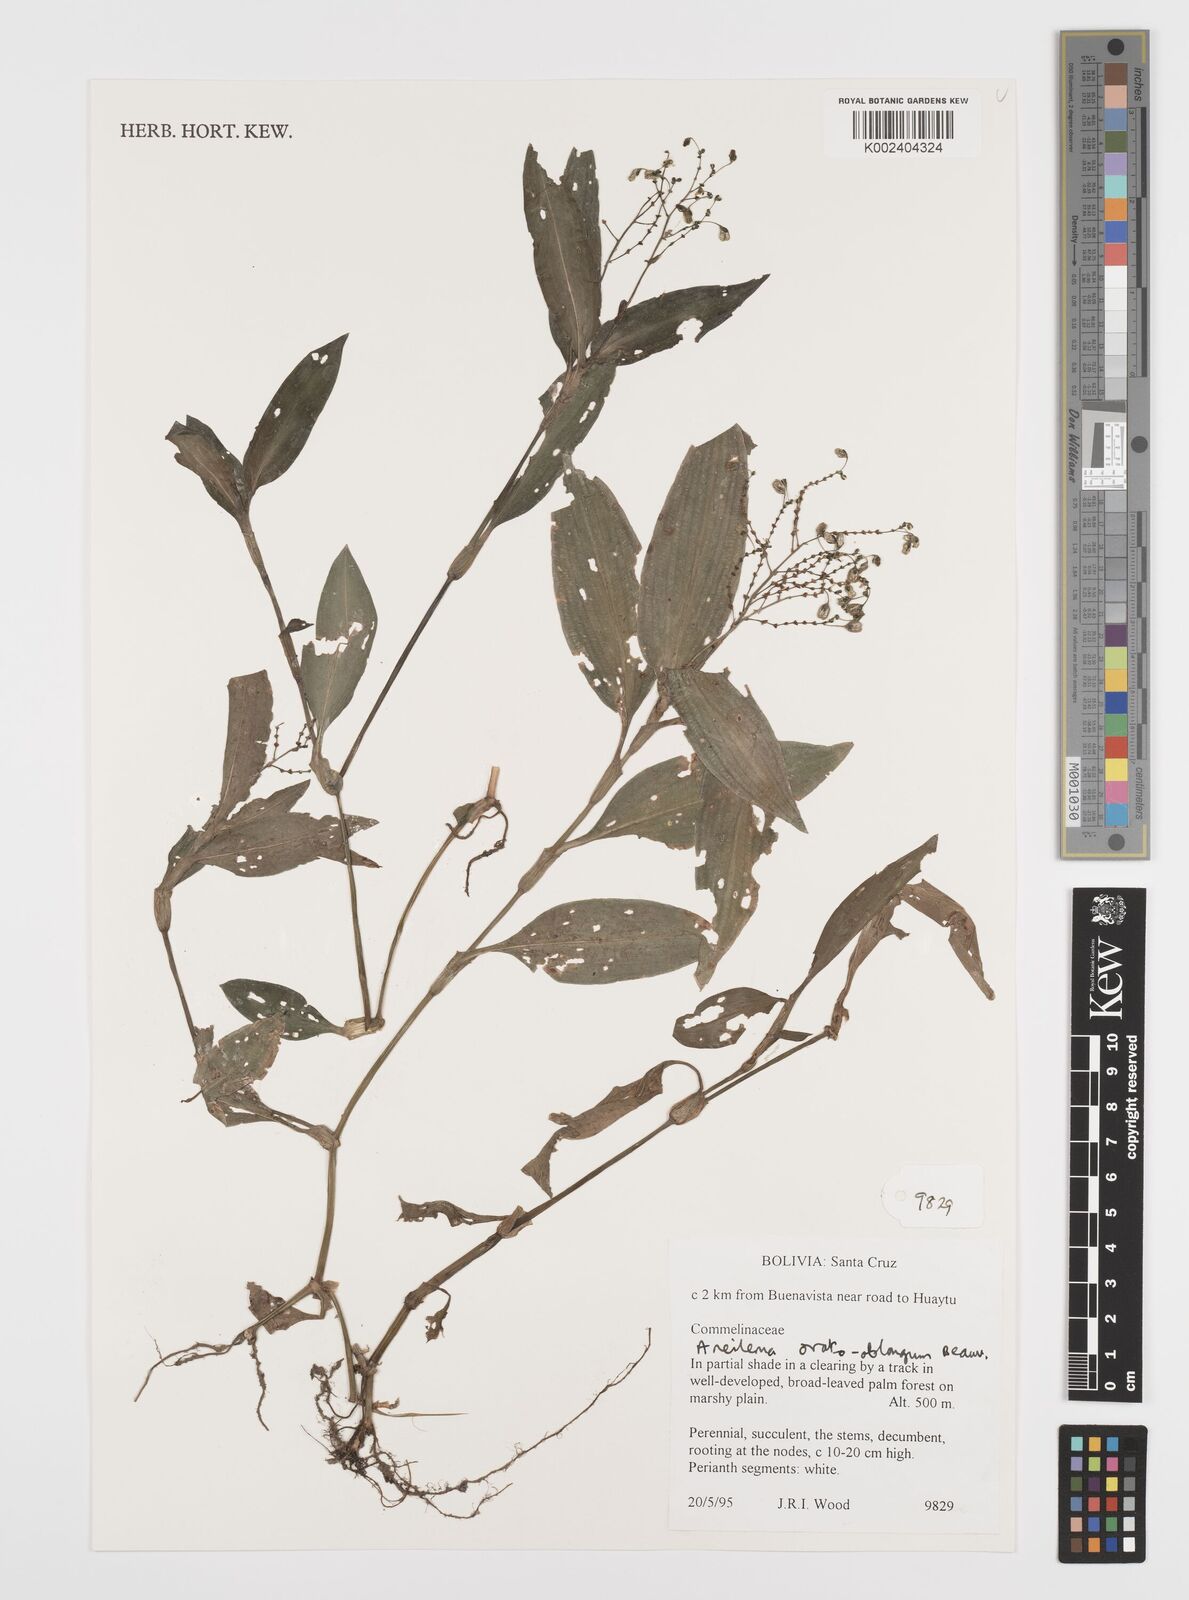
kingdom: Plantae
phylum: Tracheophyta
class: Liliopsida
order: Commelinales
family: Commelinaceae
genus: Aneilema
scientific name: Aneilema umbrosum
